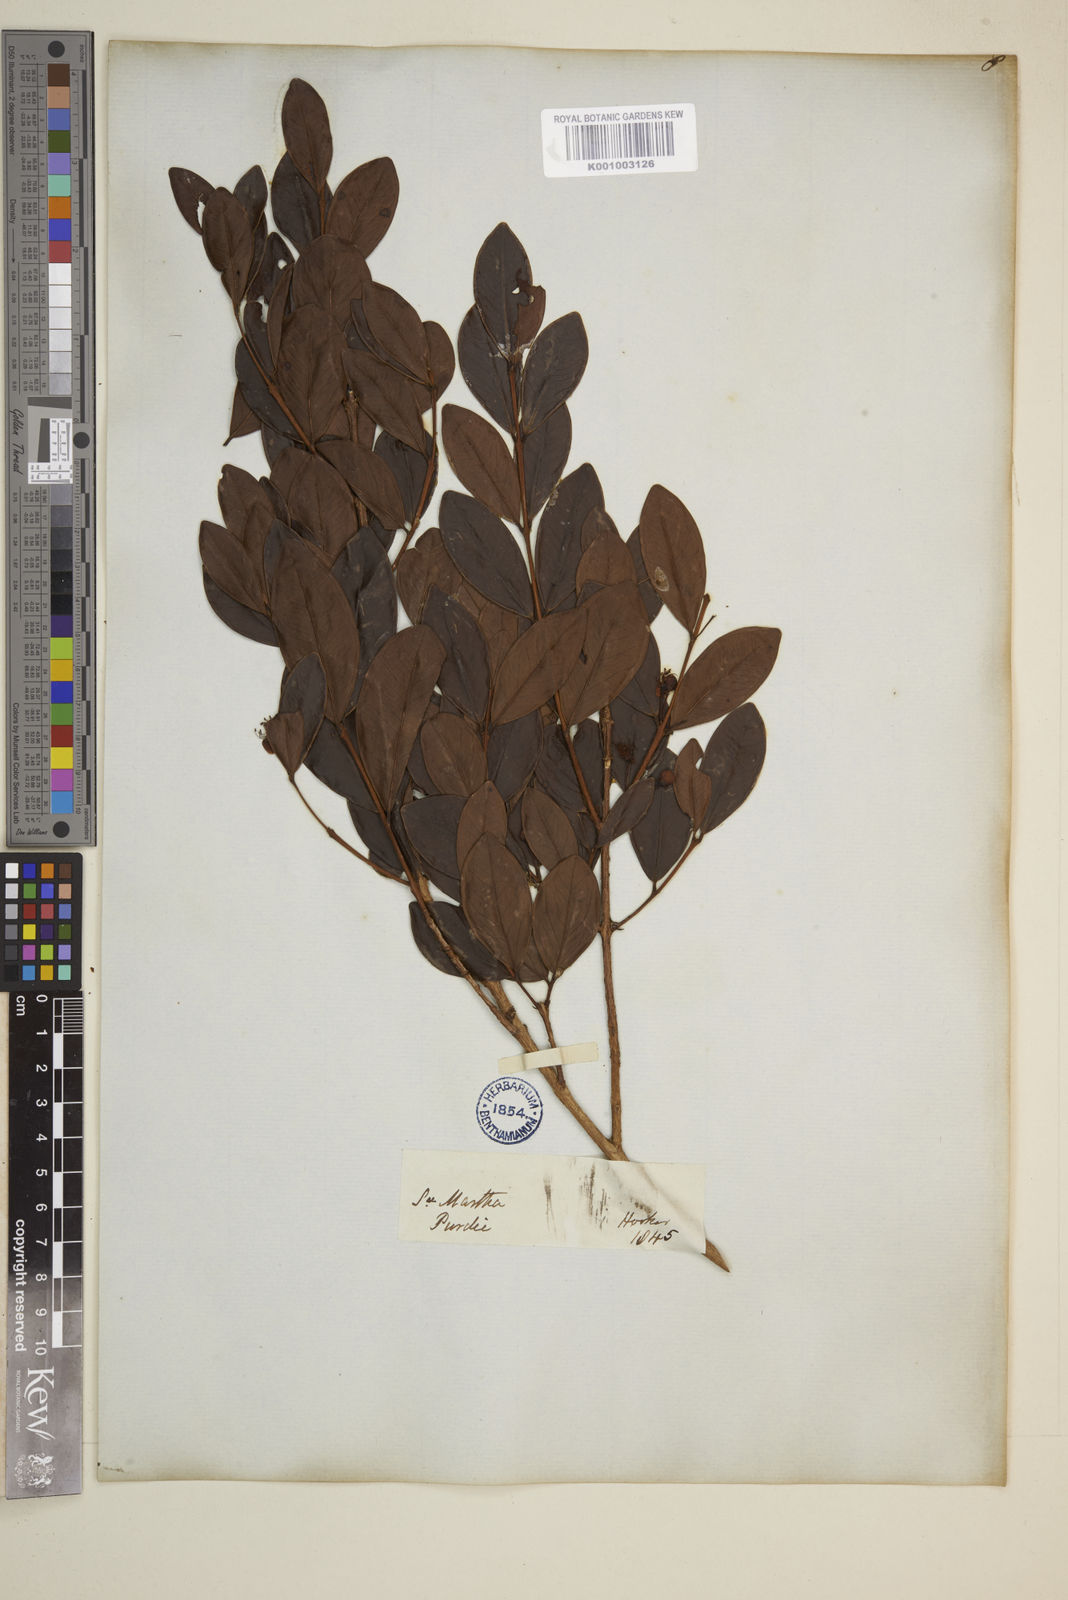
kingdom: Plantae
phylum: Tracheophyta
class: Magnoliopsida
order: Myrtales
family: Myrtaceae
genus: Eugenia
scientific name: Eugenia
